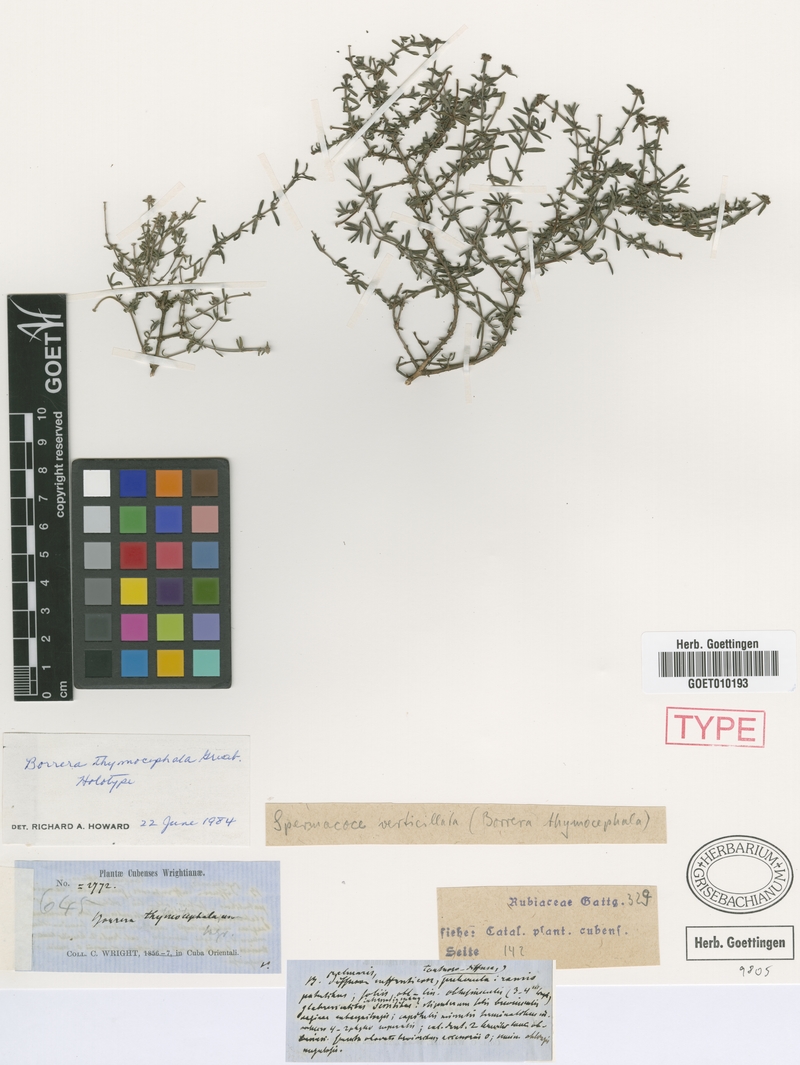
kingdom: Plantae
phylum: Tracheophyta
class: Magnoliopsida
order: Gentianales
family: Rubiaceae
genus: Spermacoce
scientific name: Spermacoce thymocephala
